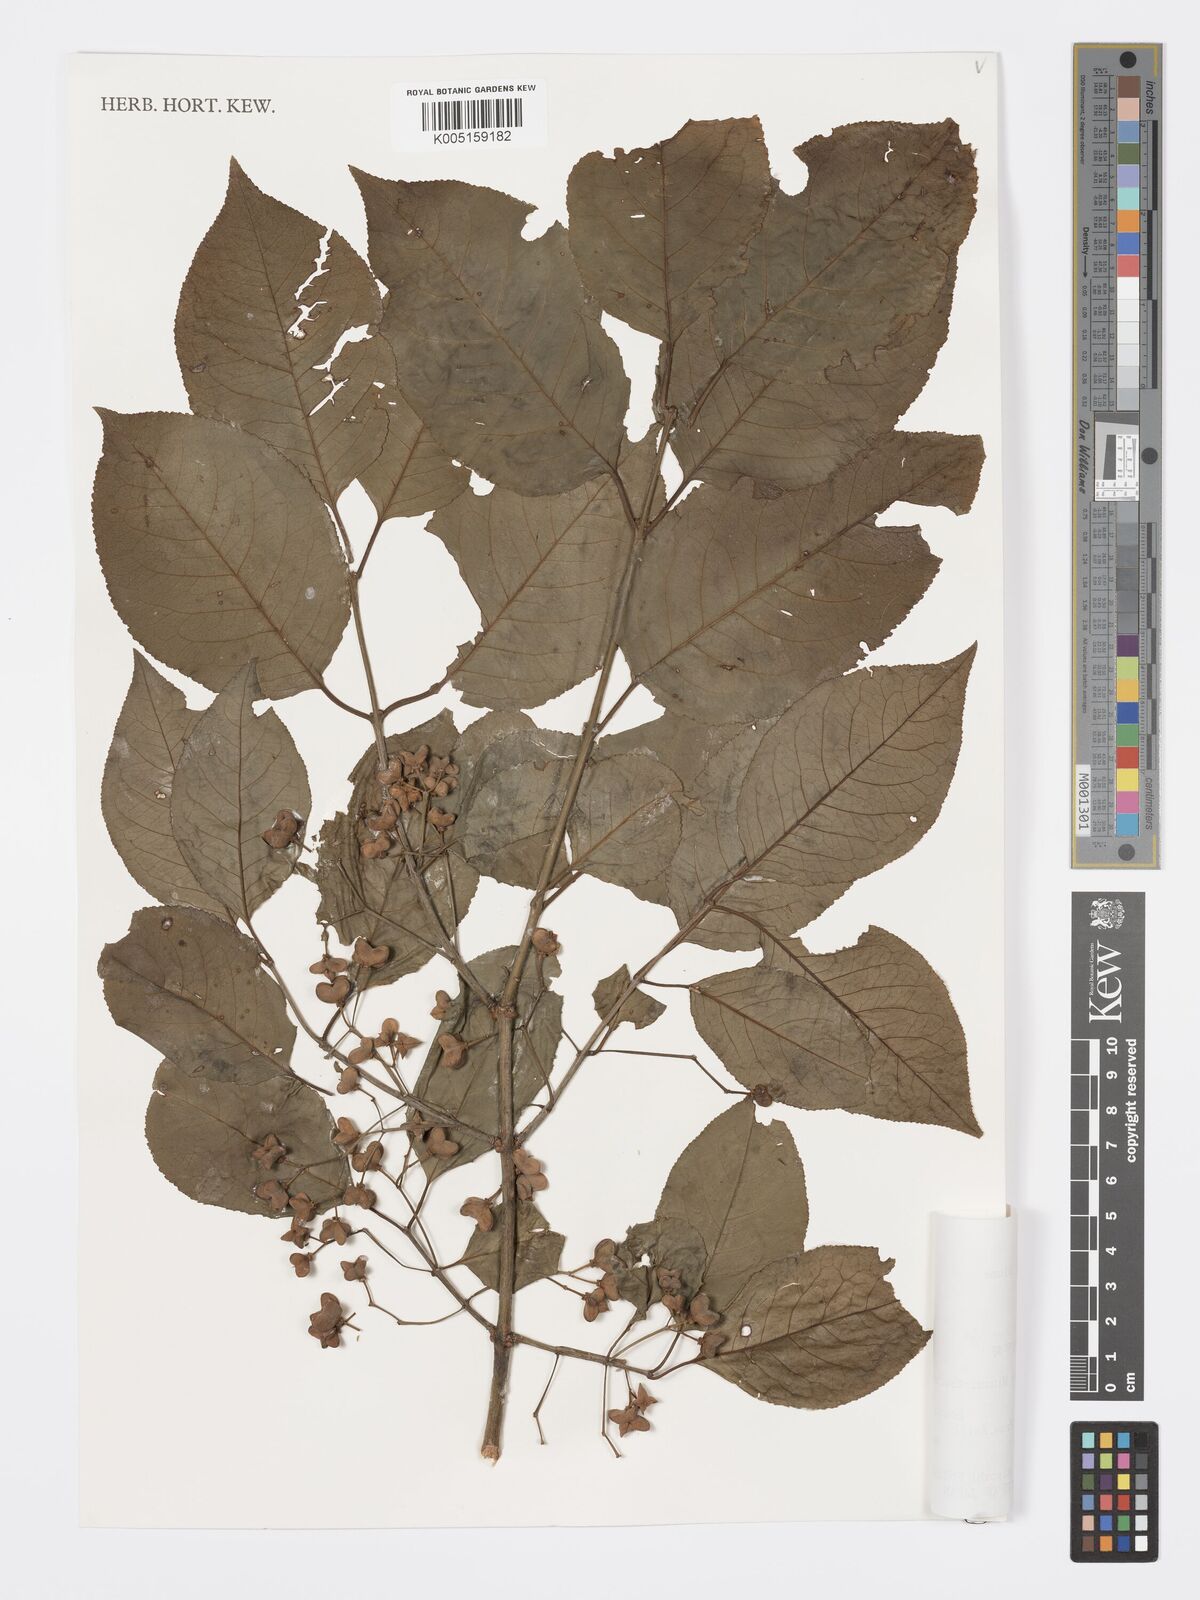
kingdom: Plantae
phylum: Tracheophyta
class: Magnoliopsida
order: Celastrales
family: Celastraceae
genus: Euonymus
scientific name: Euonymus hamiltonianus
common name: Hamilton's spindletree
